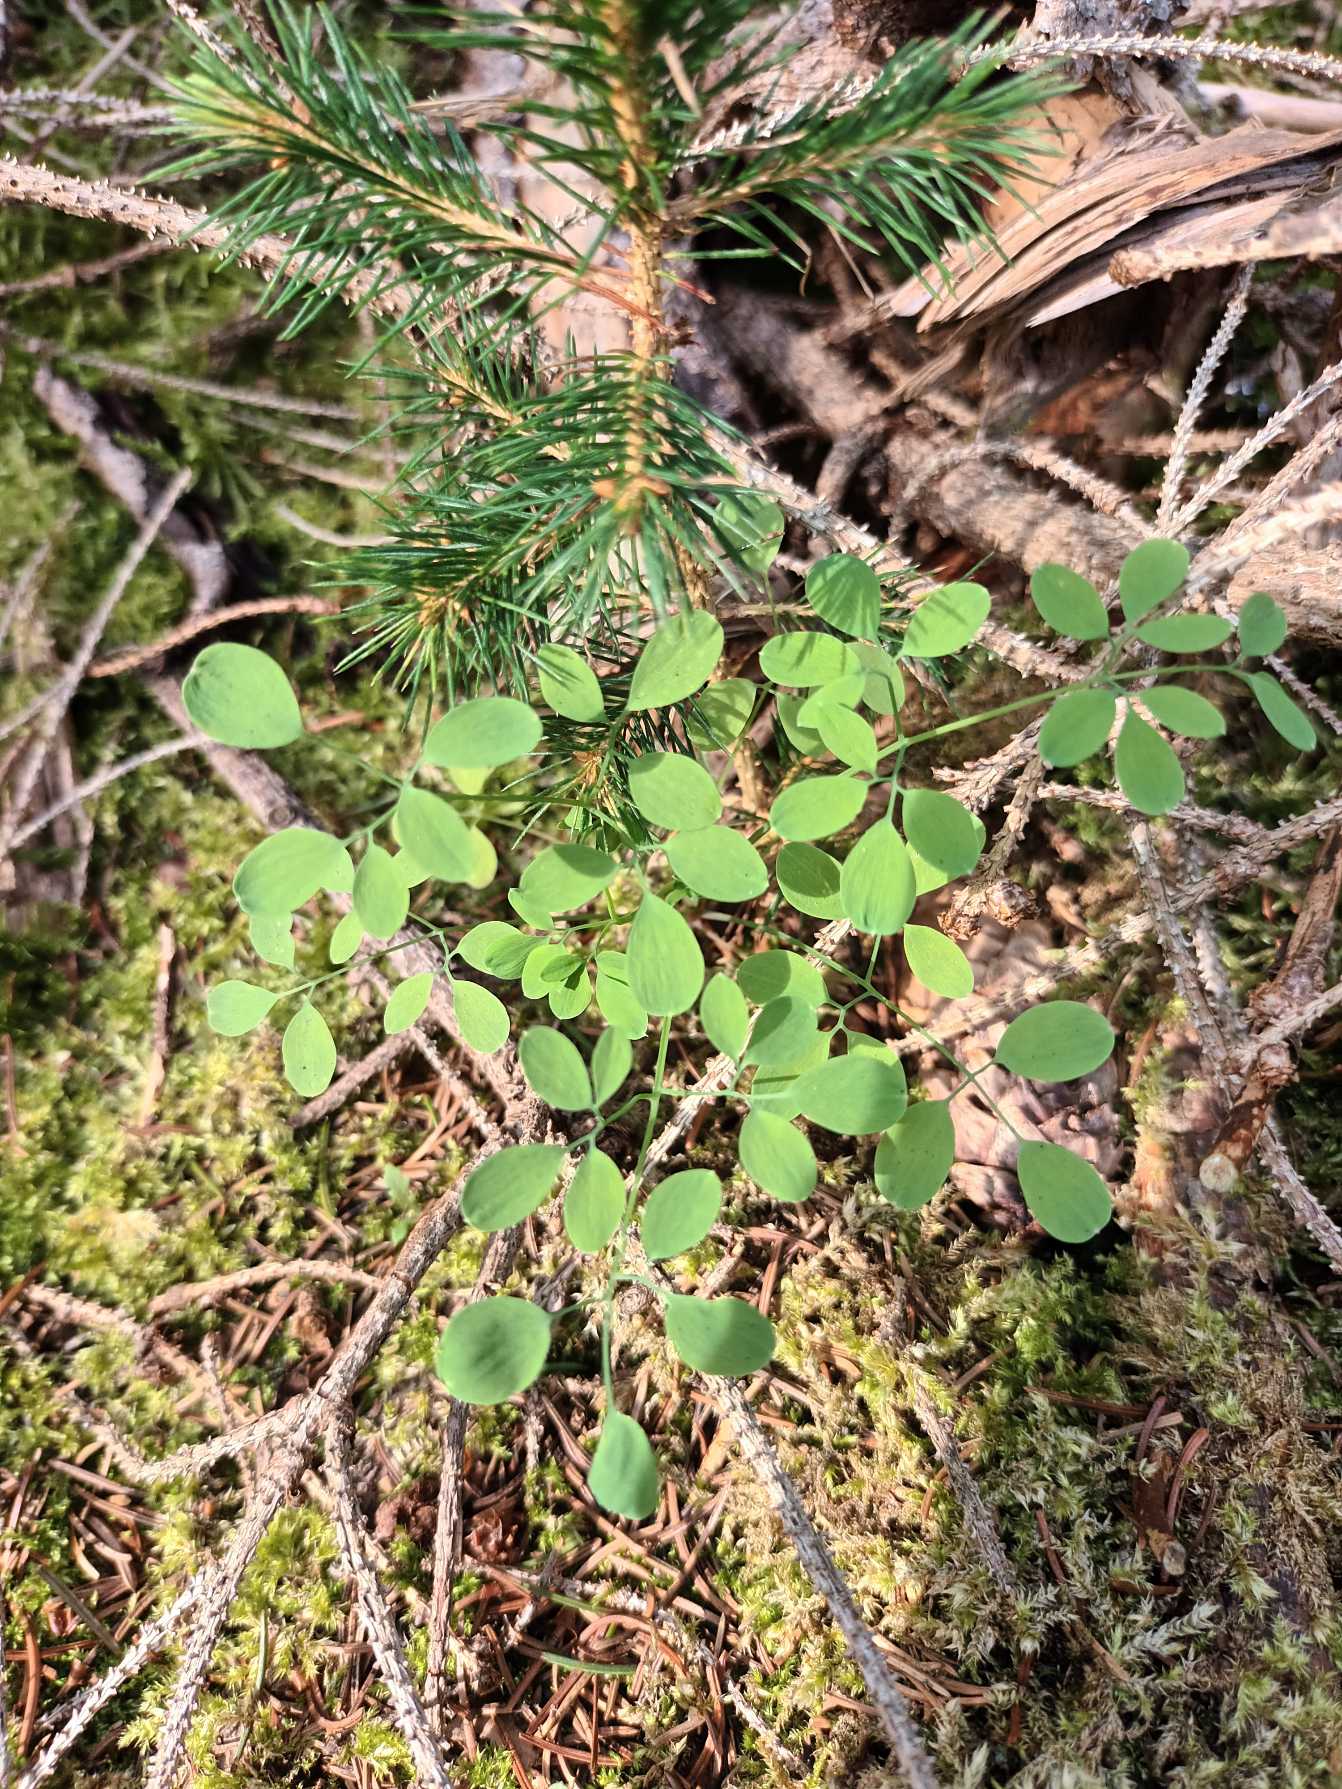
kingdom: Plantae
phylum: Tracheophyta
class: Magnoliopsida
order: Ranunculales
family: Papaveraceae
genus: Ceratocapnos
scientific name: Ceratocapnos claviculata
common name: Klatrende lærkespore
